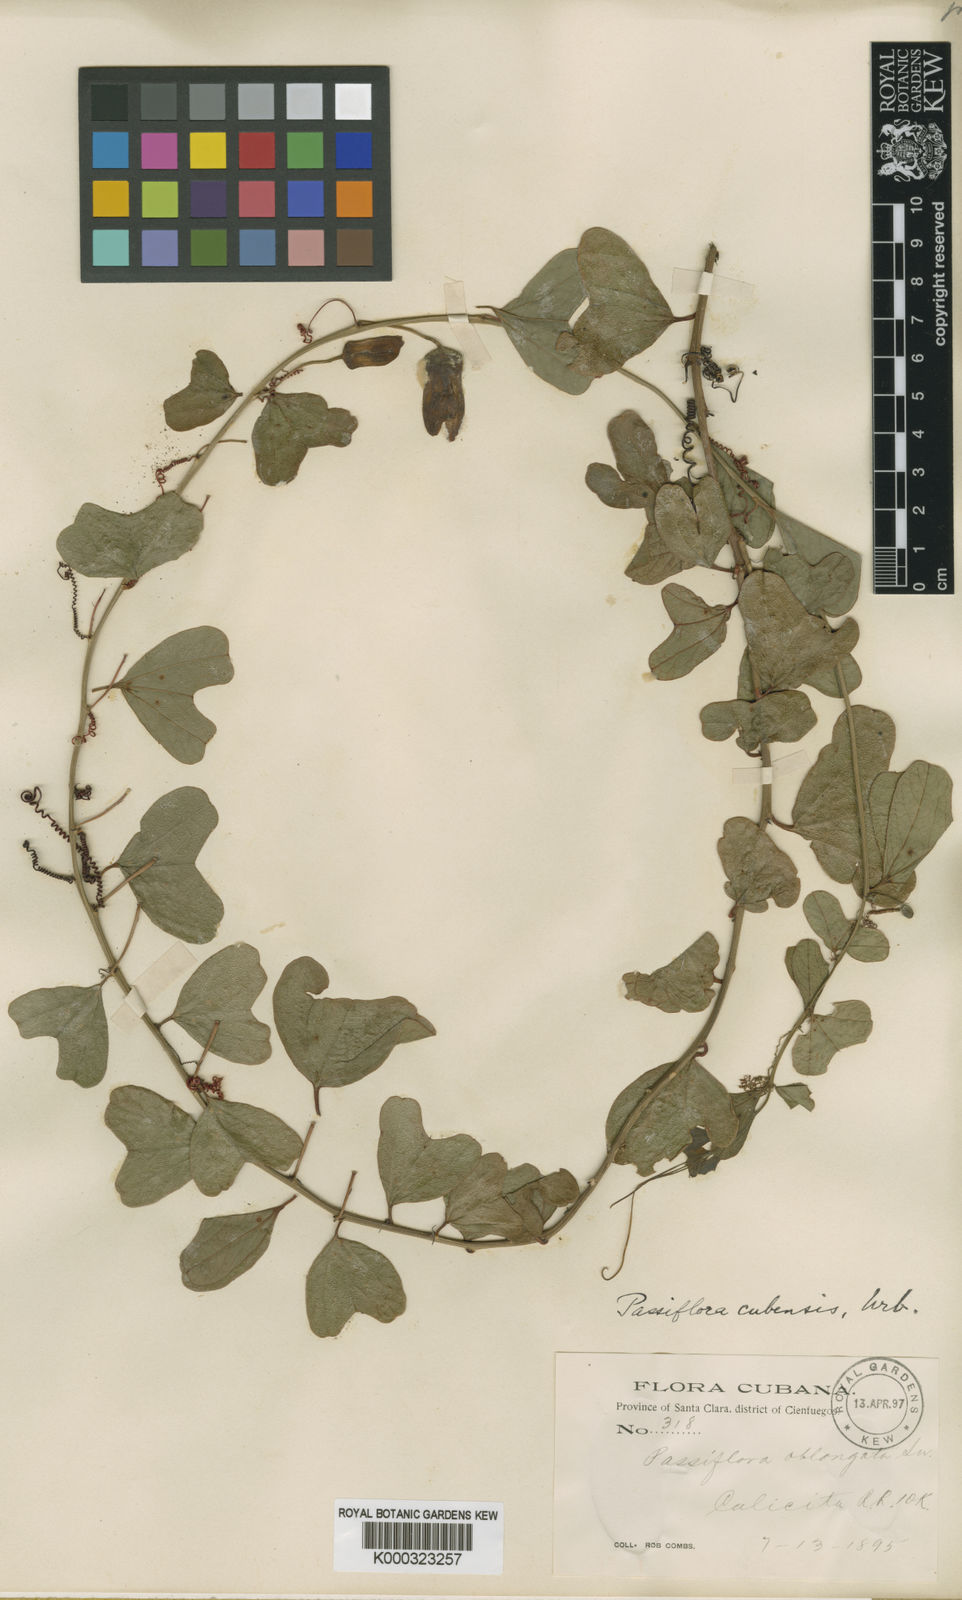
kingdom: Plantae
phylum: Tracheophyta
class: Magnoliopsida
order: Malpighiales
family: Passifloraceae
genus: Passiflora
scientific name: Passiflora cubensis
